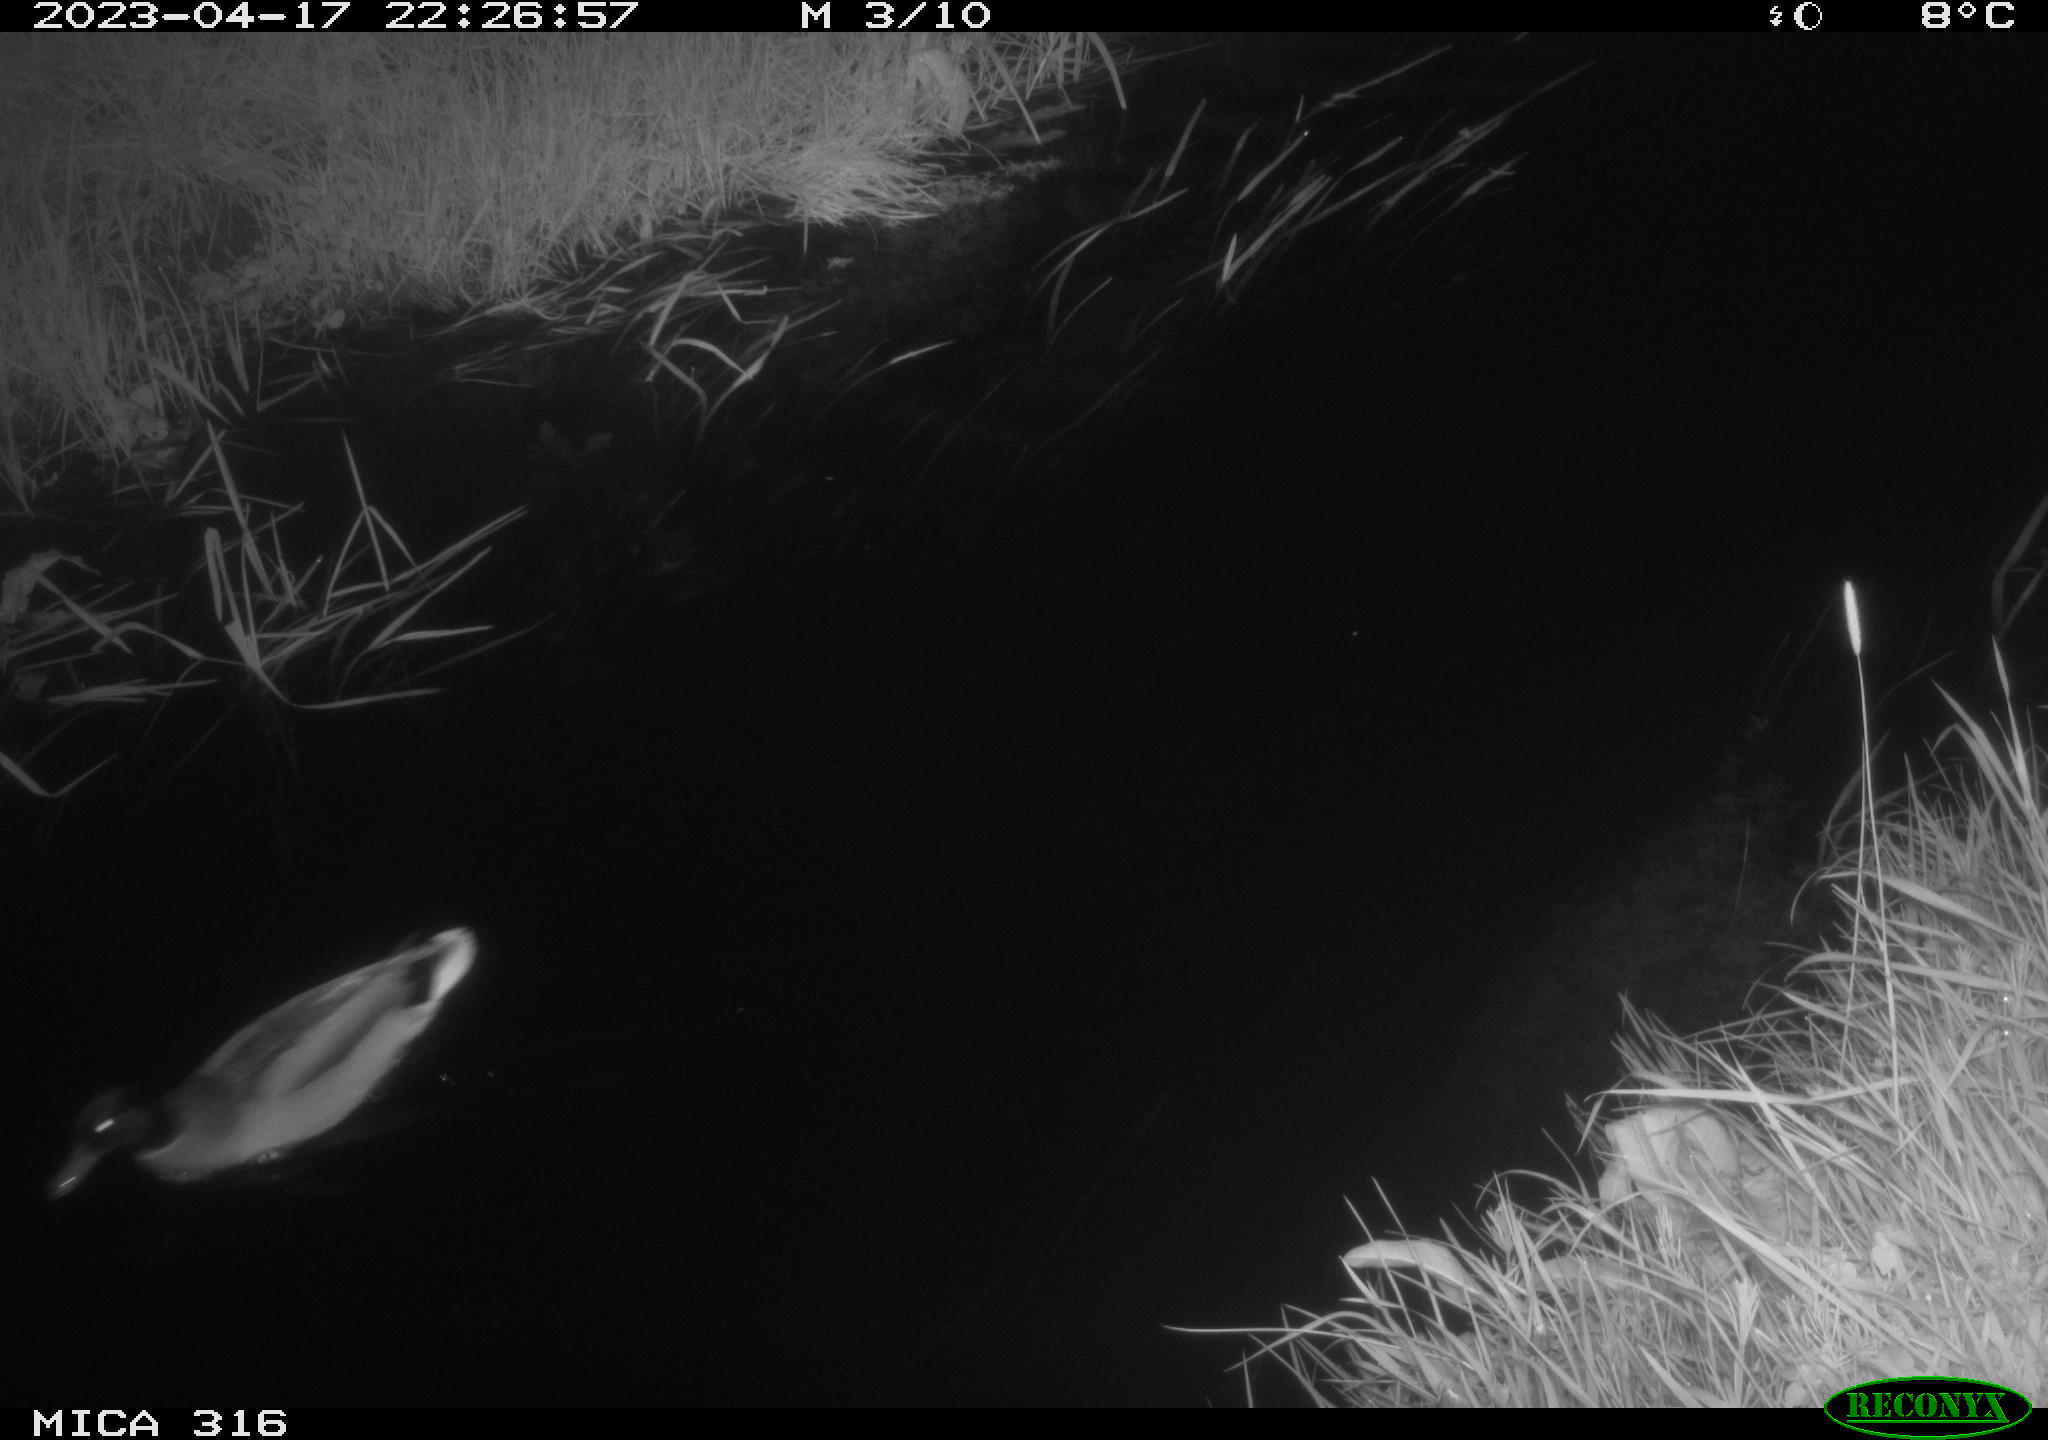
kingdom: Animalia
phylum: Chordata
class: Aves
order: Anseriformes
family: Anatidae
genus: Anas
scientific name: Anas
